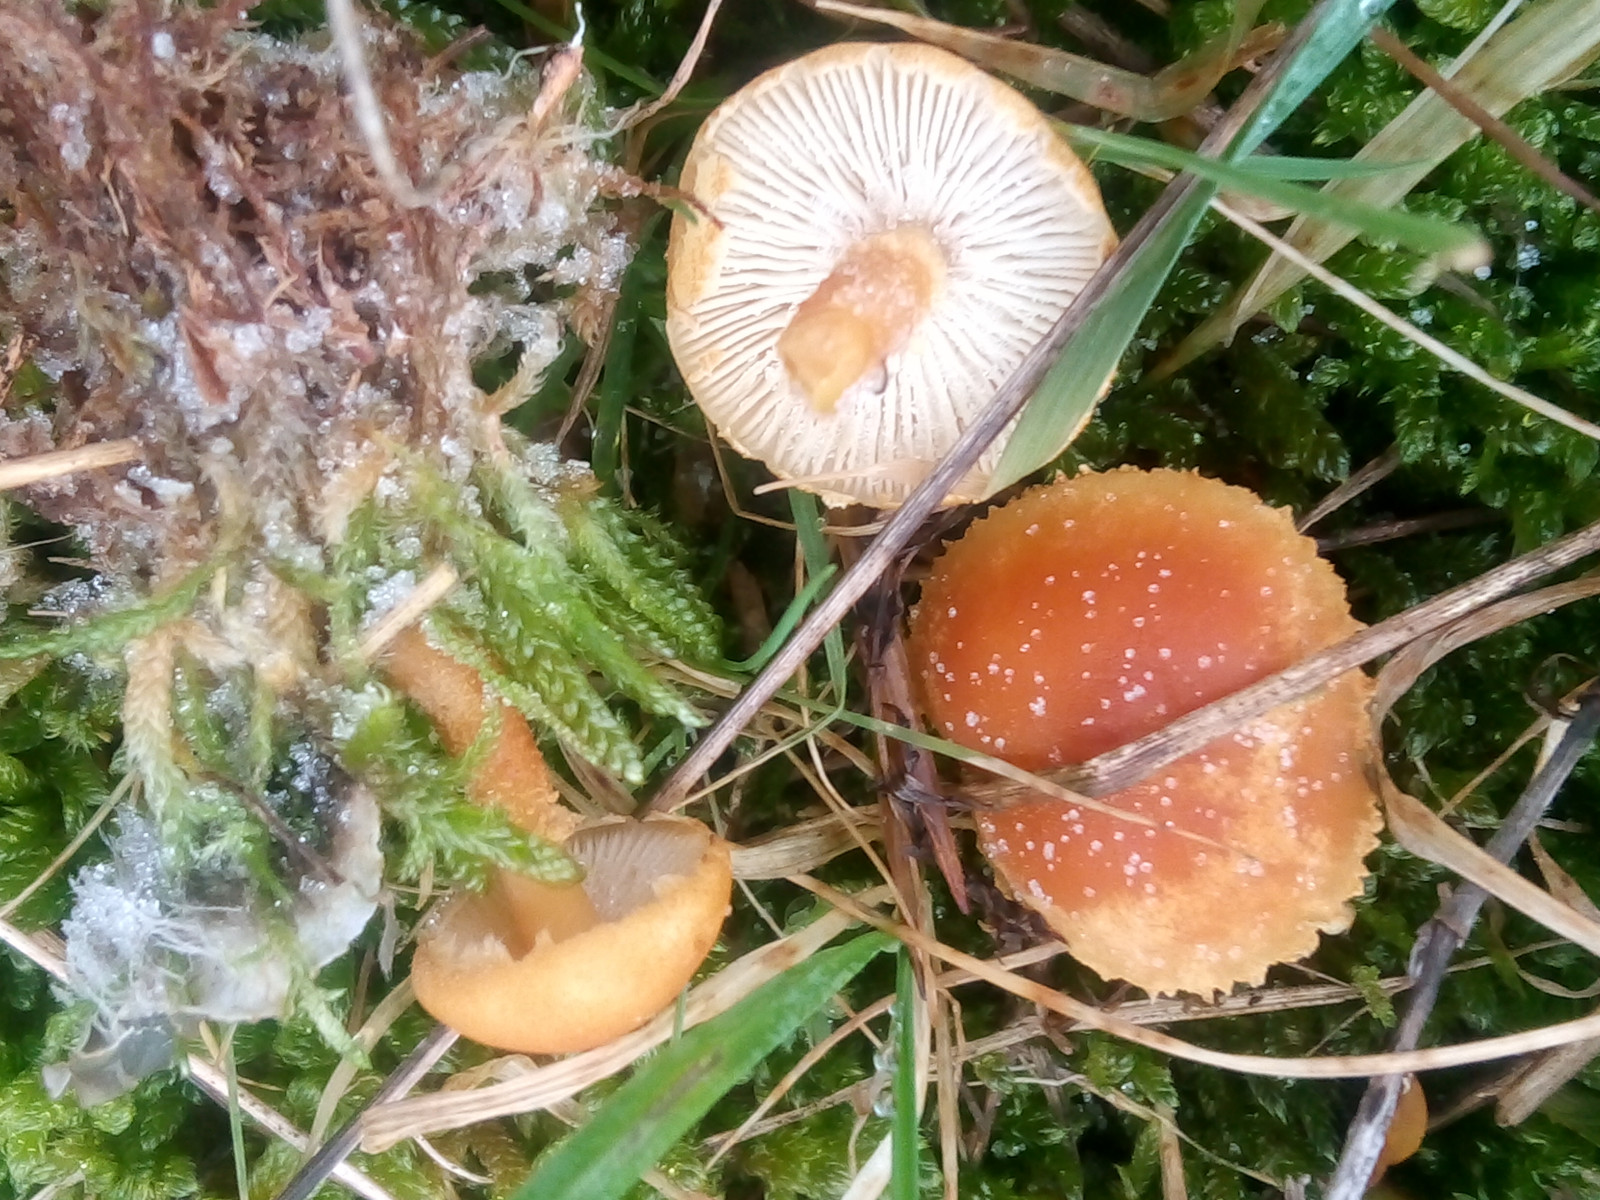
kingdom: Fungi
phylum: Basidiomycota
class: Agaricomycetes
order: Agaricales
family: Tricholomataceae
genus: Cystoderma
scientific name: Cystoderma amianthinum
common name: okkergul grynhat
